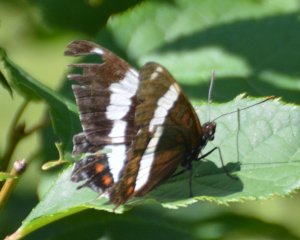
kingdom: Animalia
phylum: Arthropoda
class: Insecta
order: Lepidoptera
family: Nymphalidae
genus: Limenitis
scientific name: Limenitis arthemis
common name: Red-spotted Admiral
